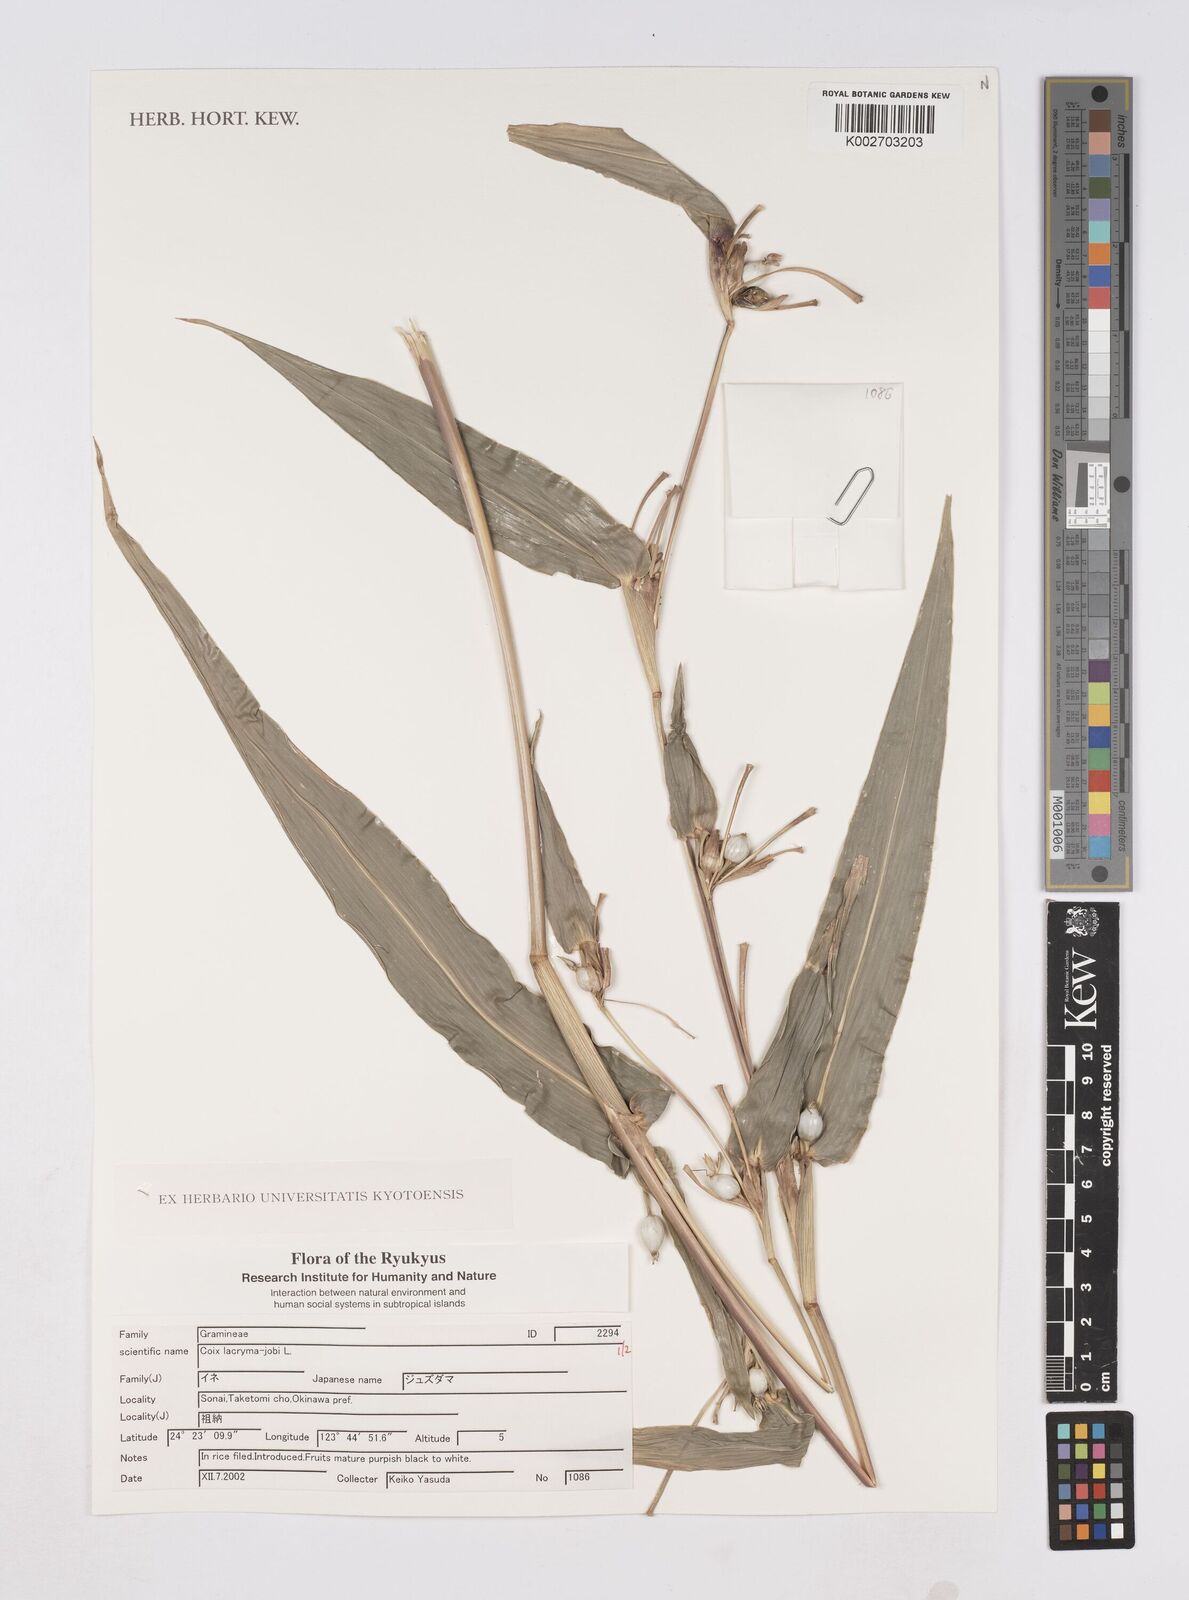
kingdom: Plantae
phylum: Tracheophyta
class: Liliopsida
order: Poales
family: Poaceae
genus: Coix
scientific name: Coix lacryma-jobi
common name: Job's tears
